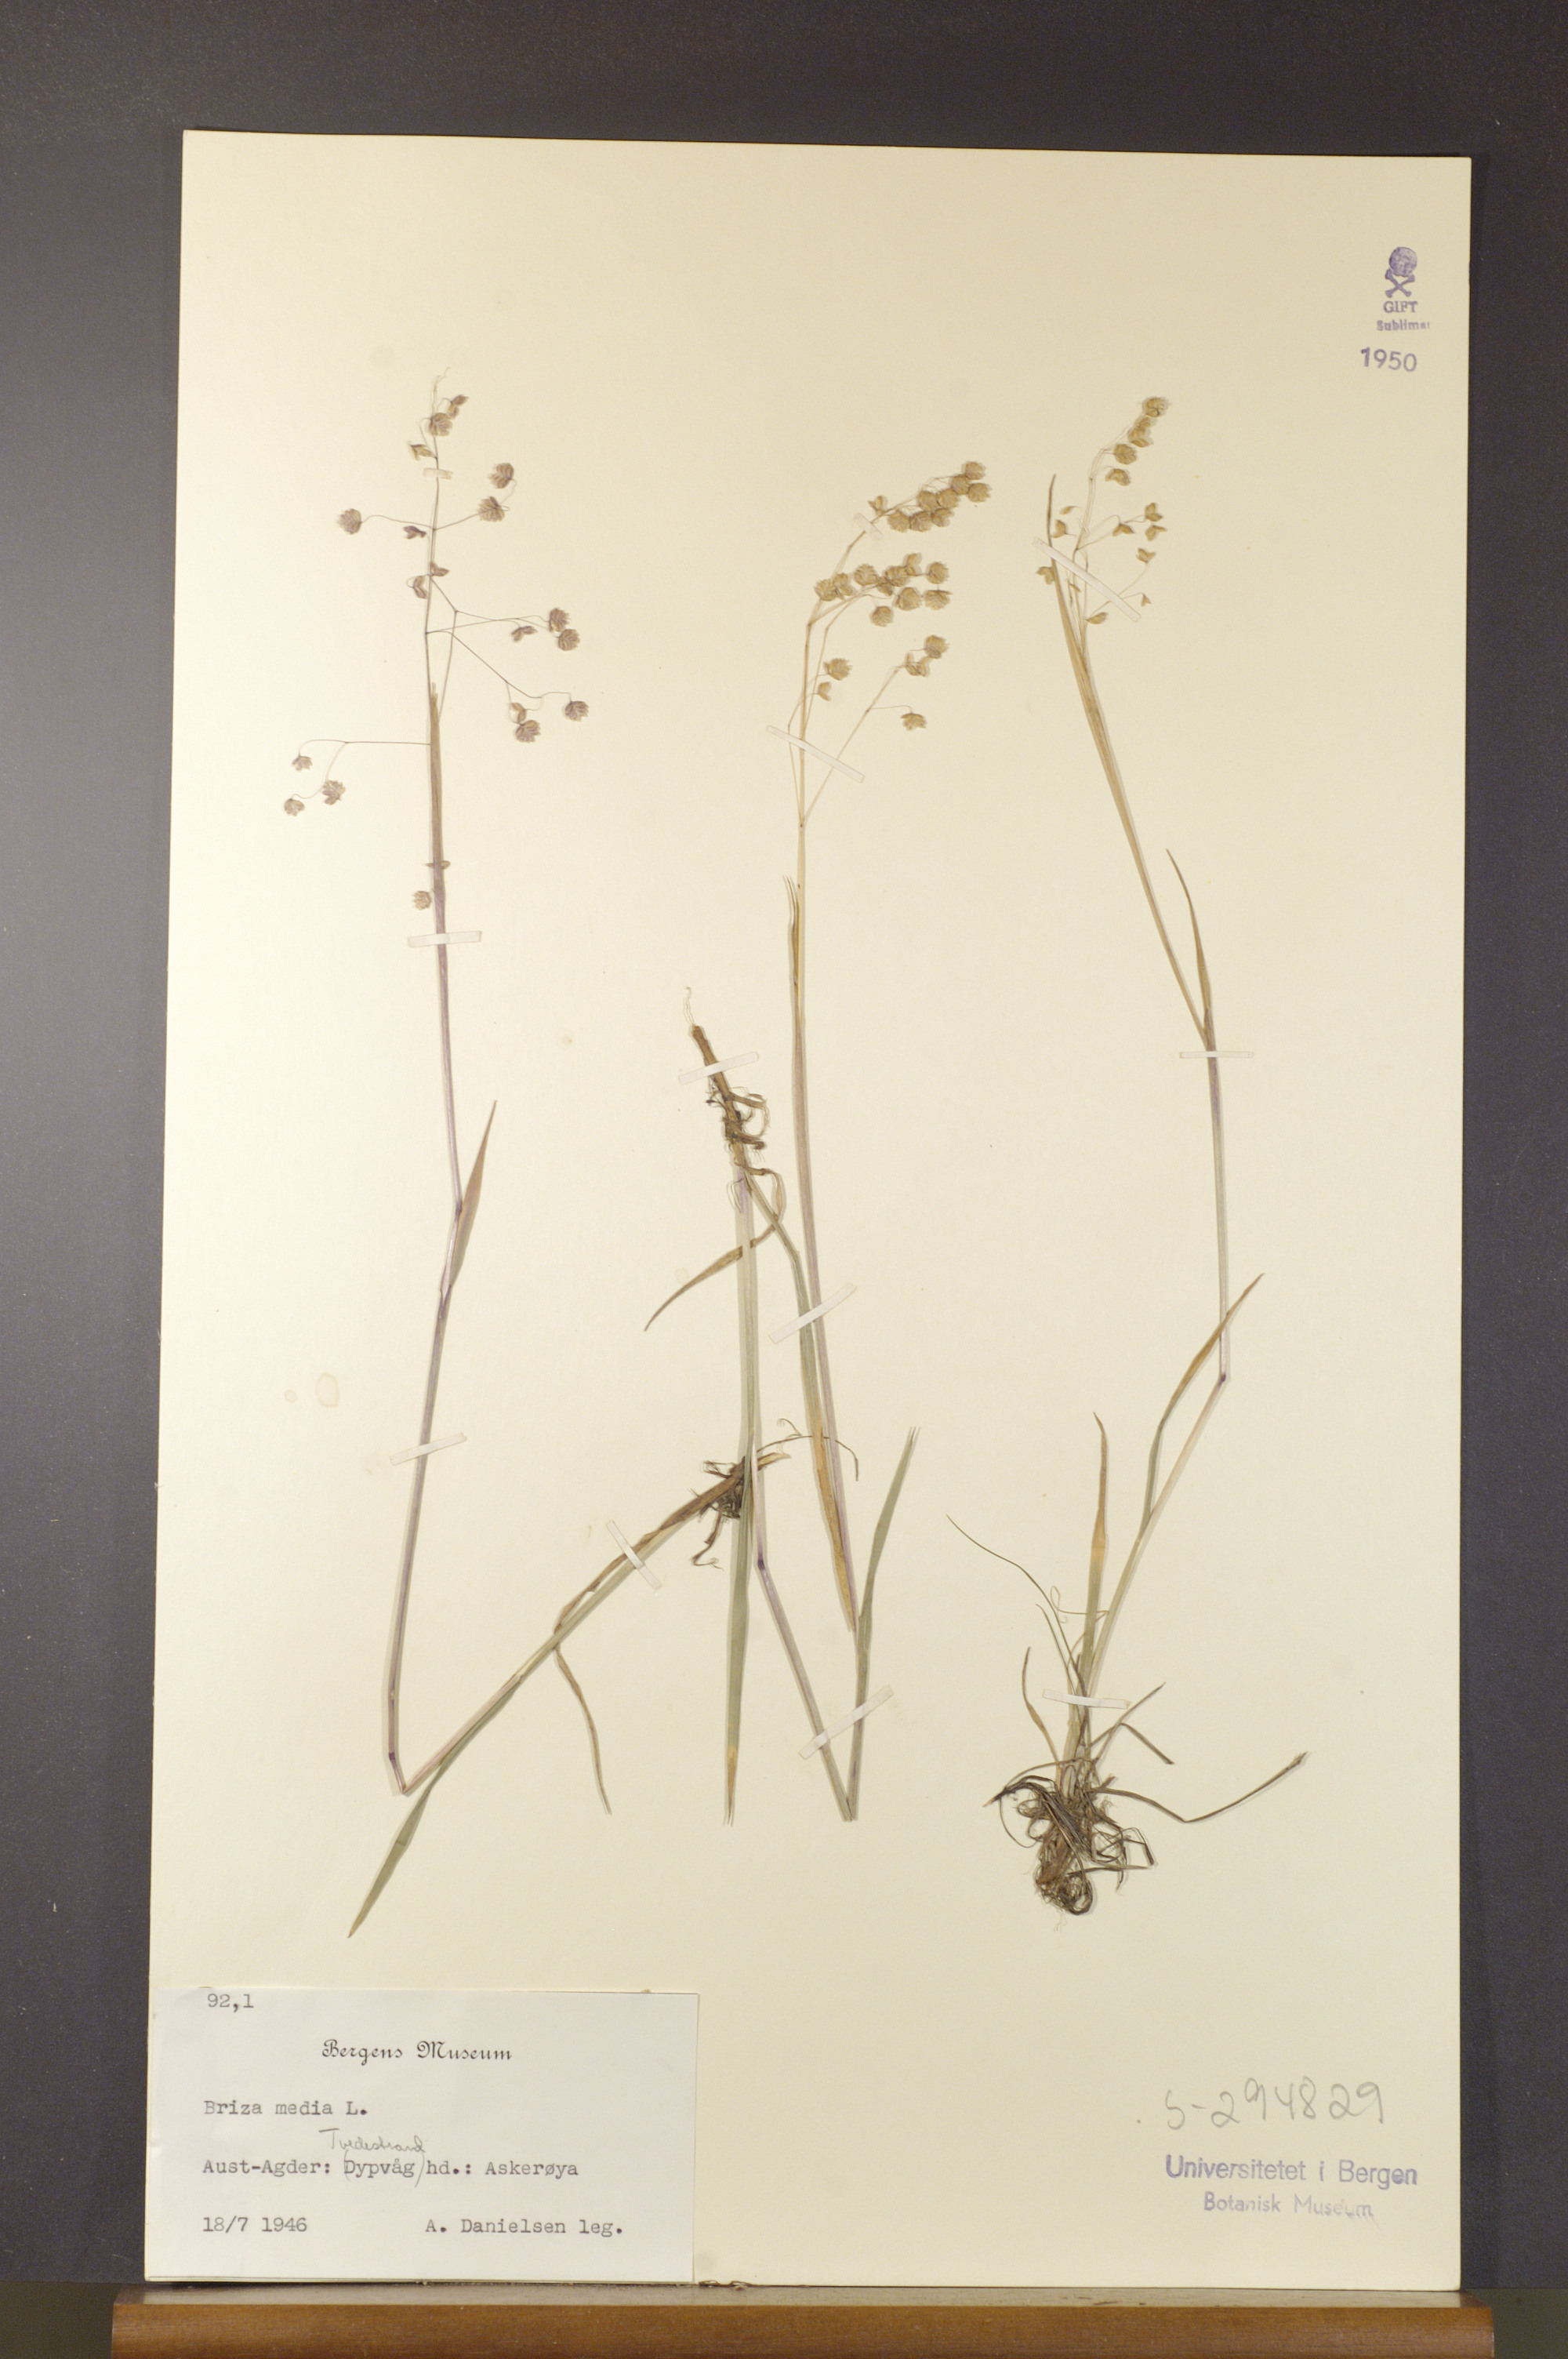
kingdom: Plantae
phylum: Tracheophyta
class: Liliopsida
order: Poales
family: Poaceae
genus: Briza
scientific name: Briza media
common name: Quaking grass
